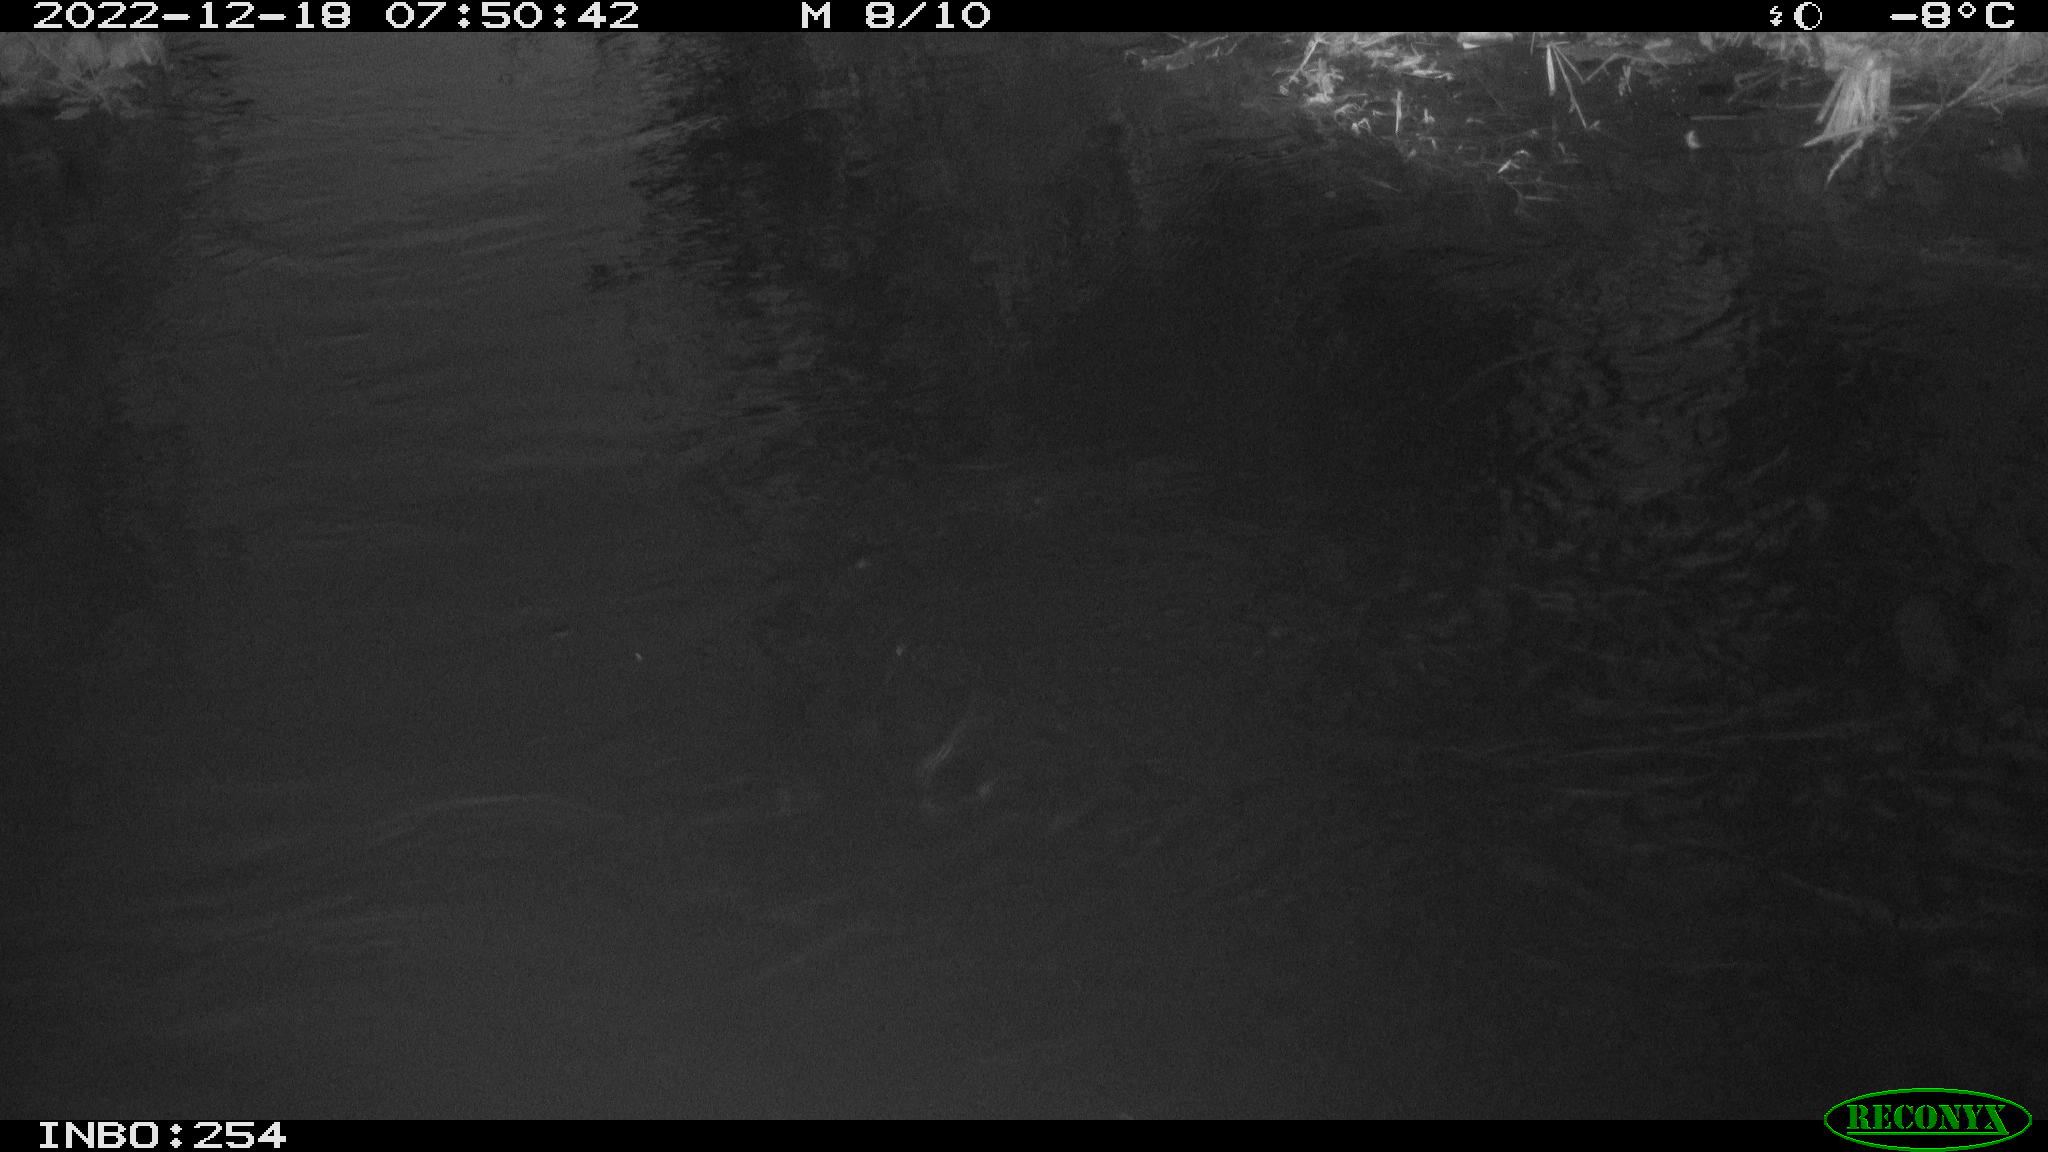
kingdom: Animalia
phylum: Chordata
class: Aves
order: Anseriformes
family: Anatidae
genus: Anas
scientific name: Anas
